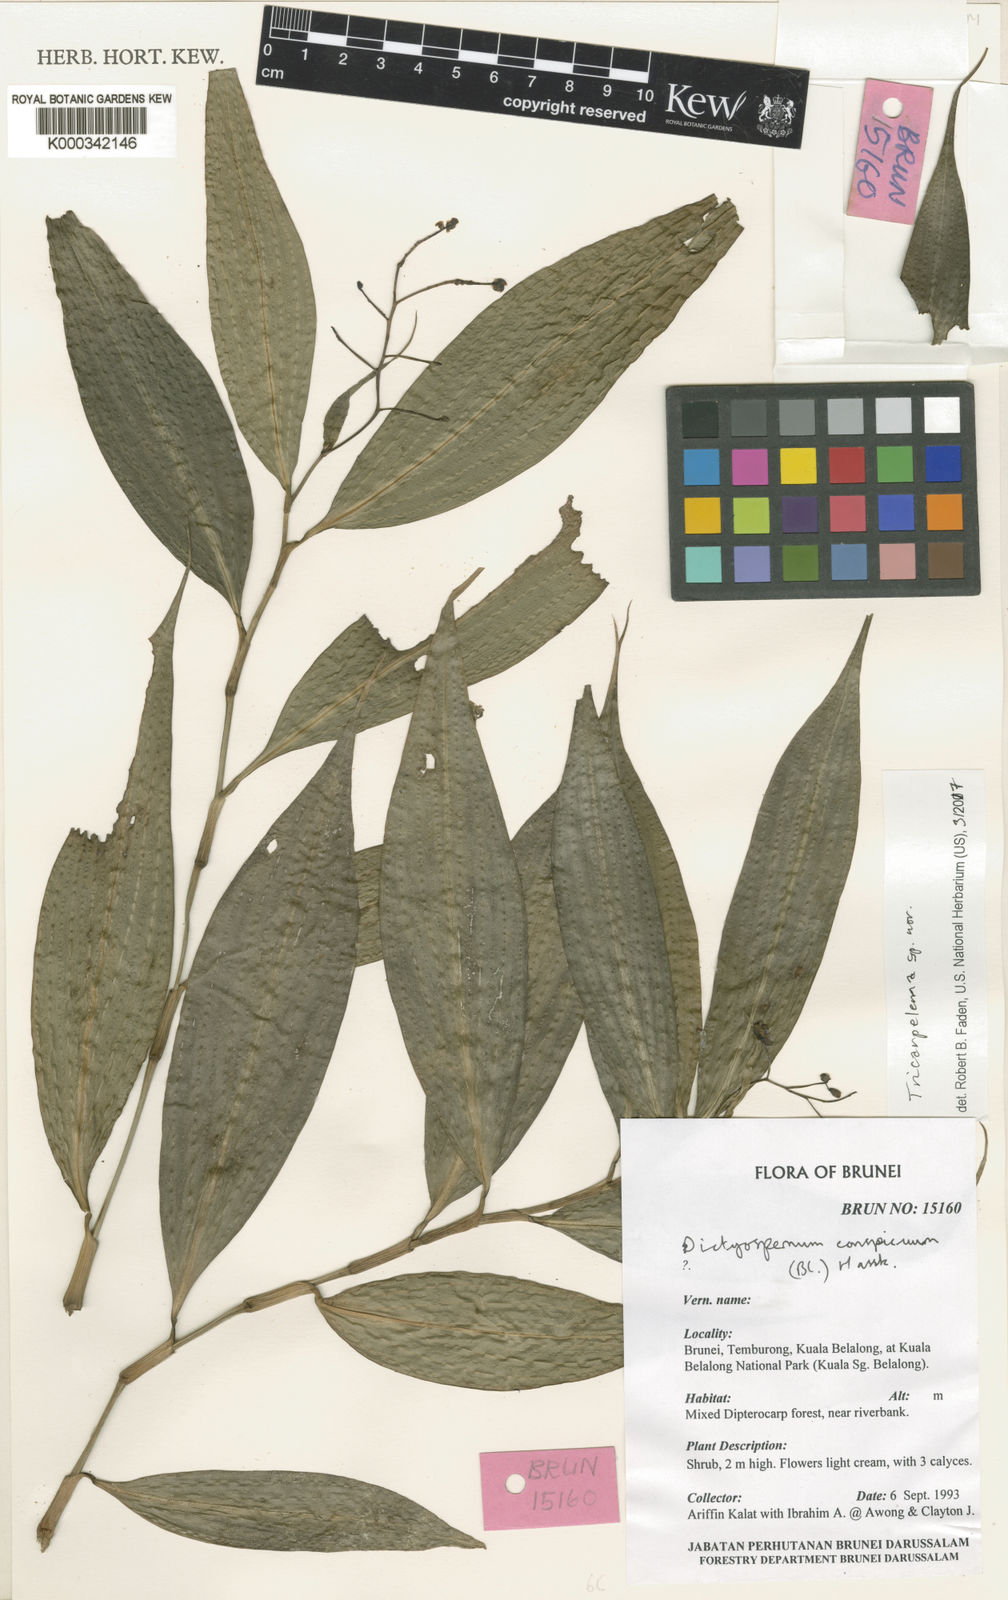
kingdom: Plantae
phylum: Tracheophyta
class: Liliopsida
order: Commelinales
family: Commelinaceae
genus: Tricarpelema
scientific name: Tricarpelema
